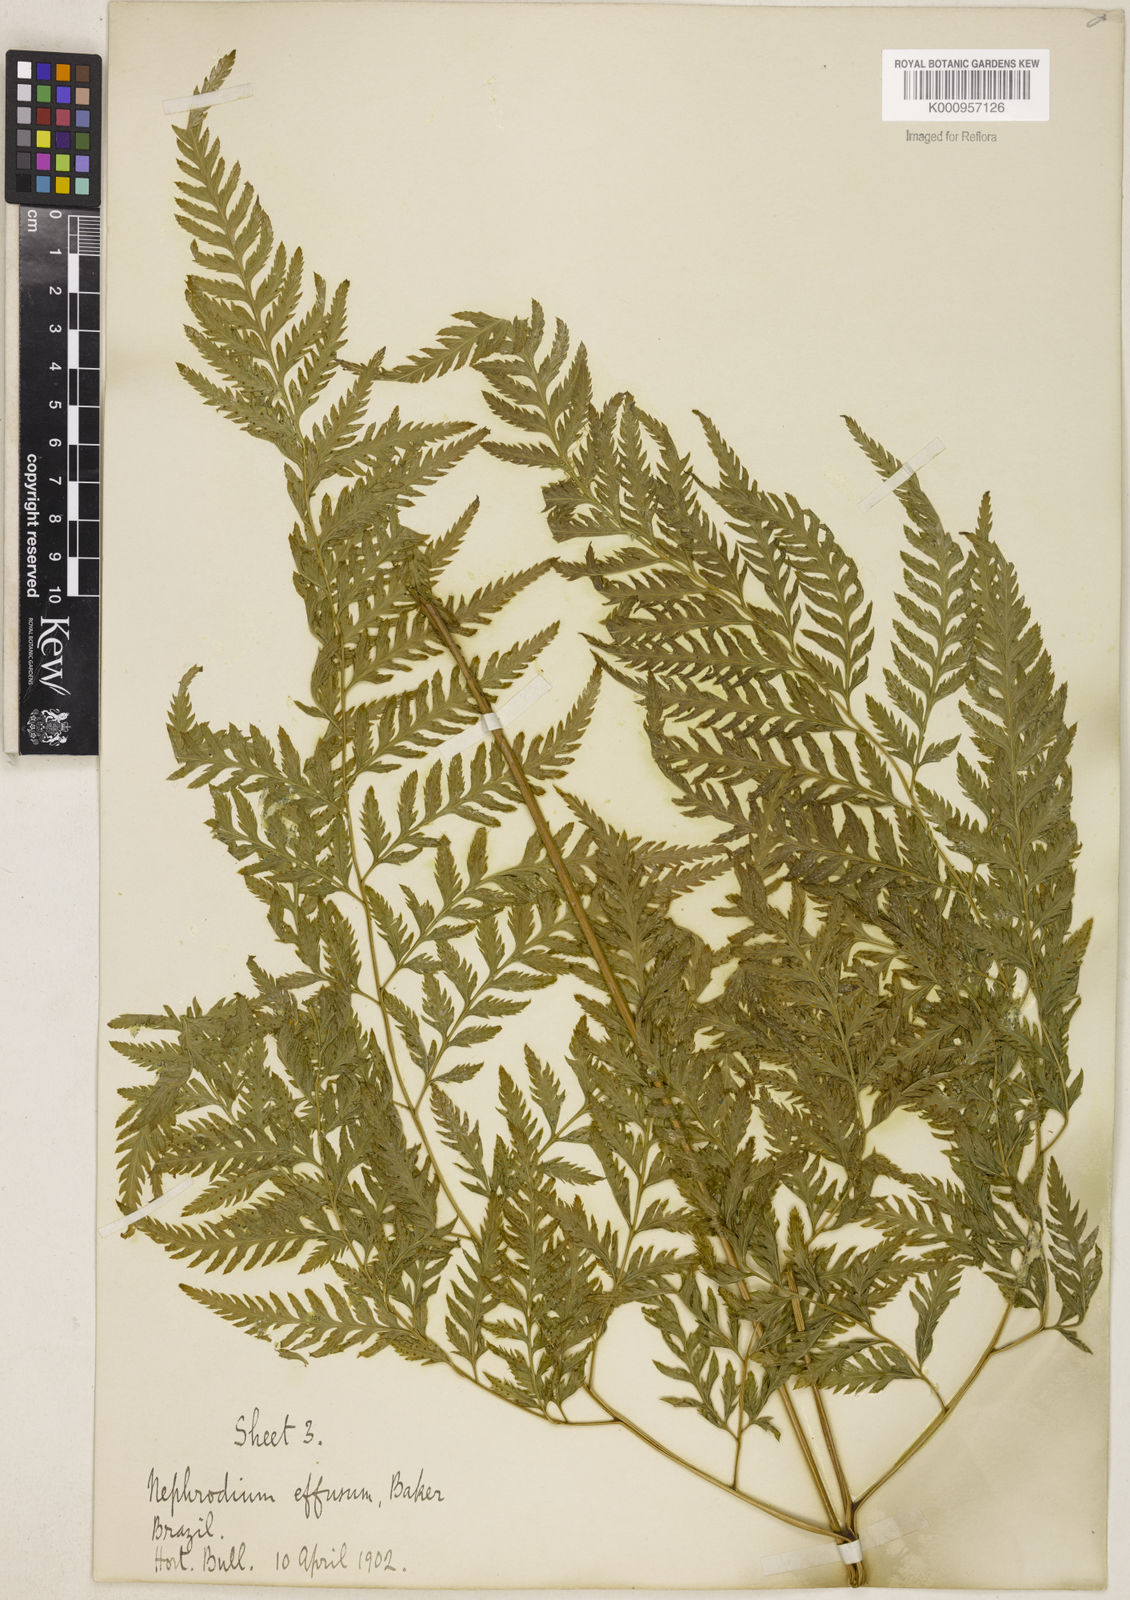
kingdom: Plantae
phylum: Tracheophyta
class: Polypodiopsida
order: Polypodiales
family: Dryopteridaceae
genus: Parapolystichum
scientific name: Parapolystichum effusum
